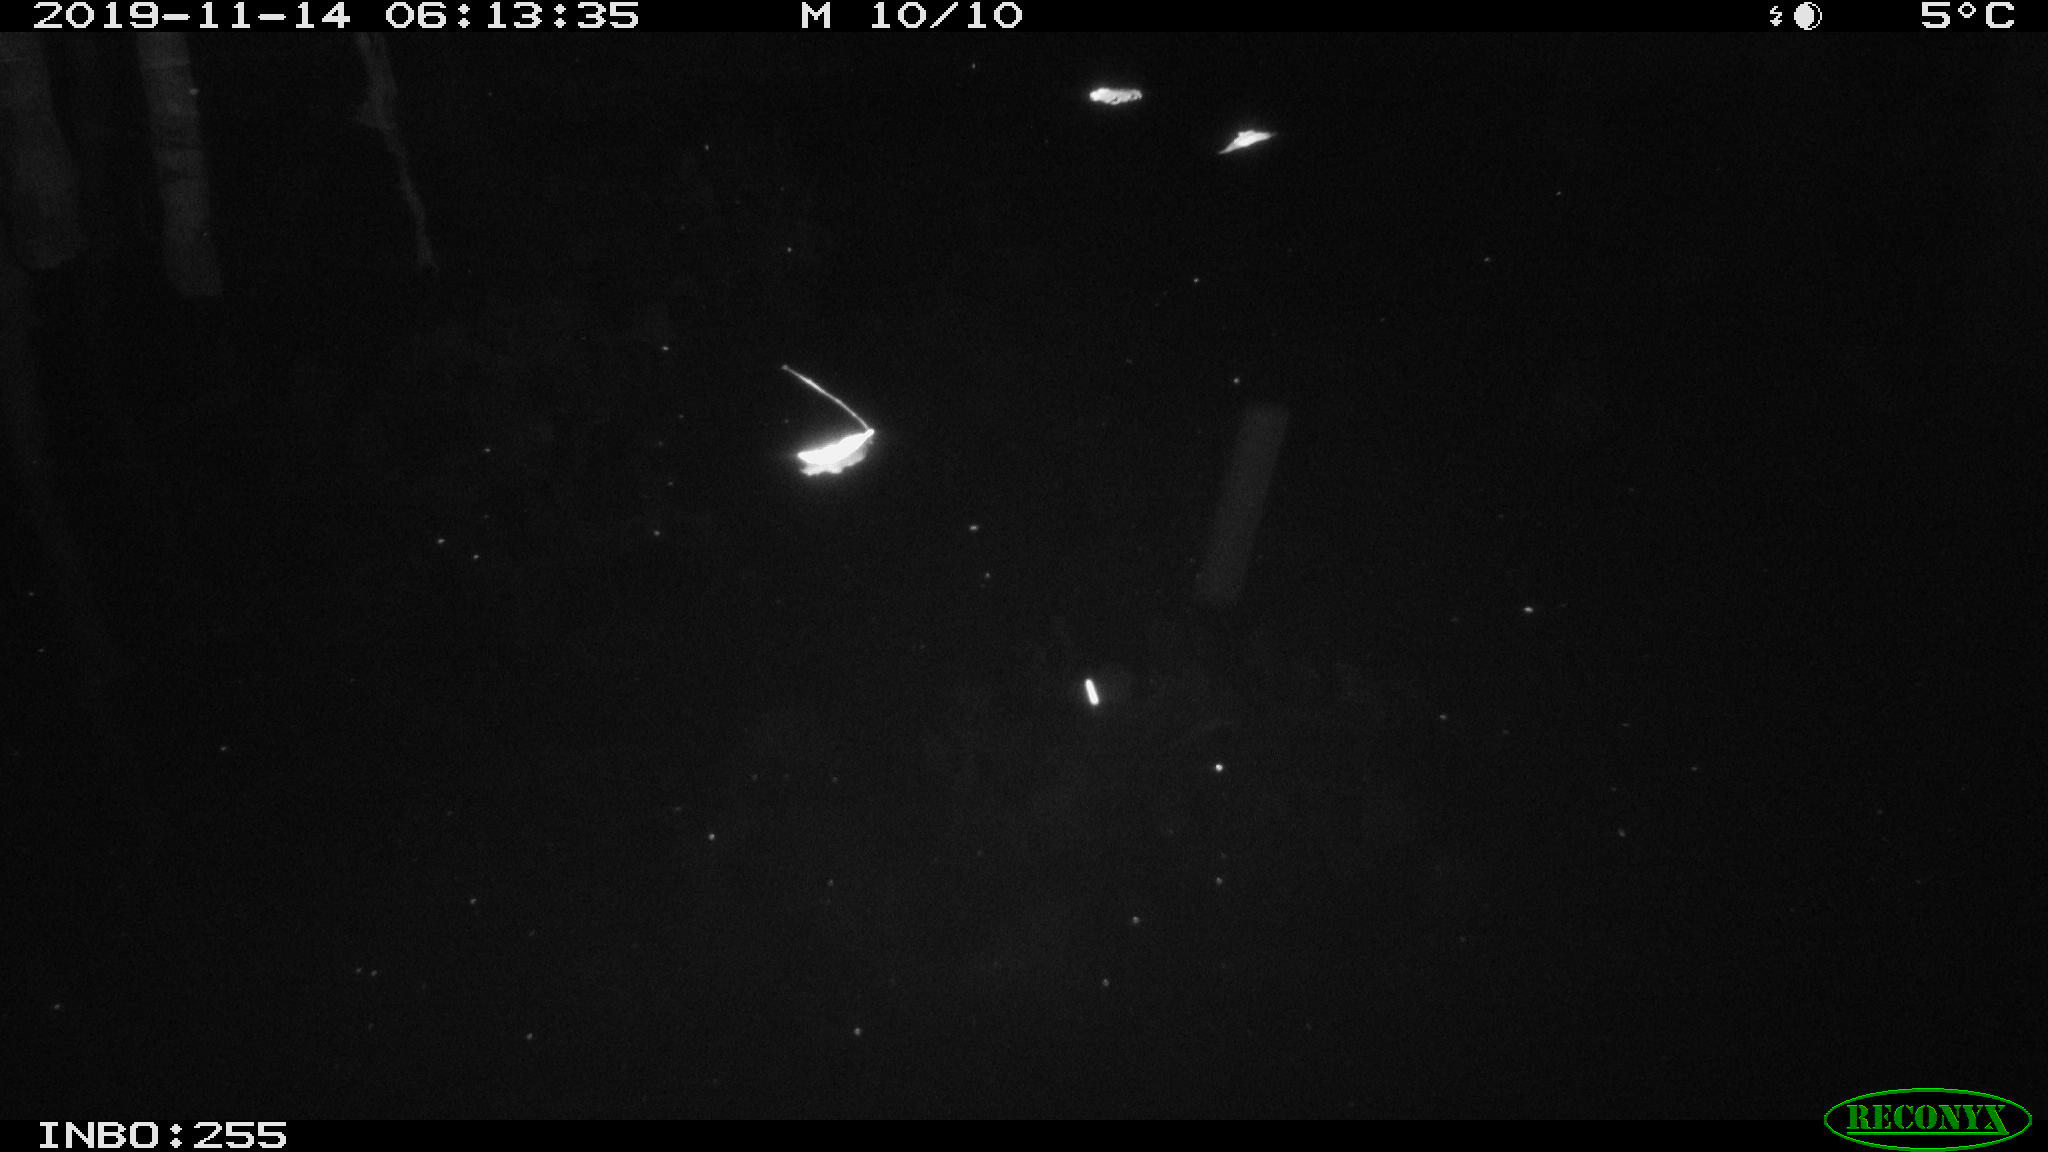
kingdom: Animalia
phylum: Chordata
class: Mammalia
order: Rodentia
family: Cricetidae
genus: Ondatra
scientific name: Ondatra zibethicus
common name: Muskrat
